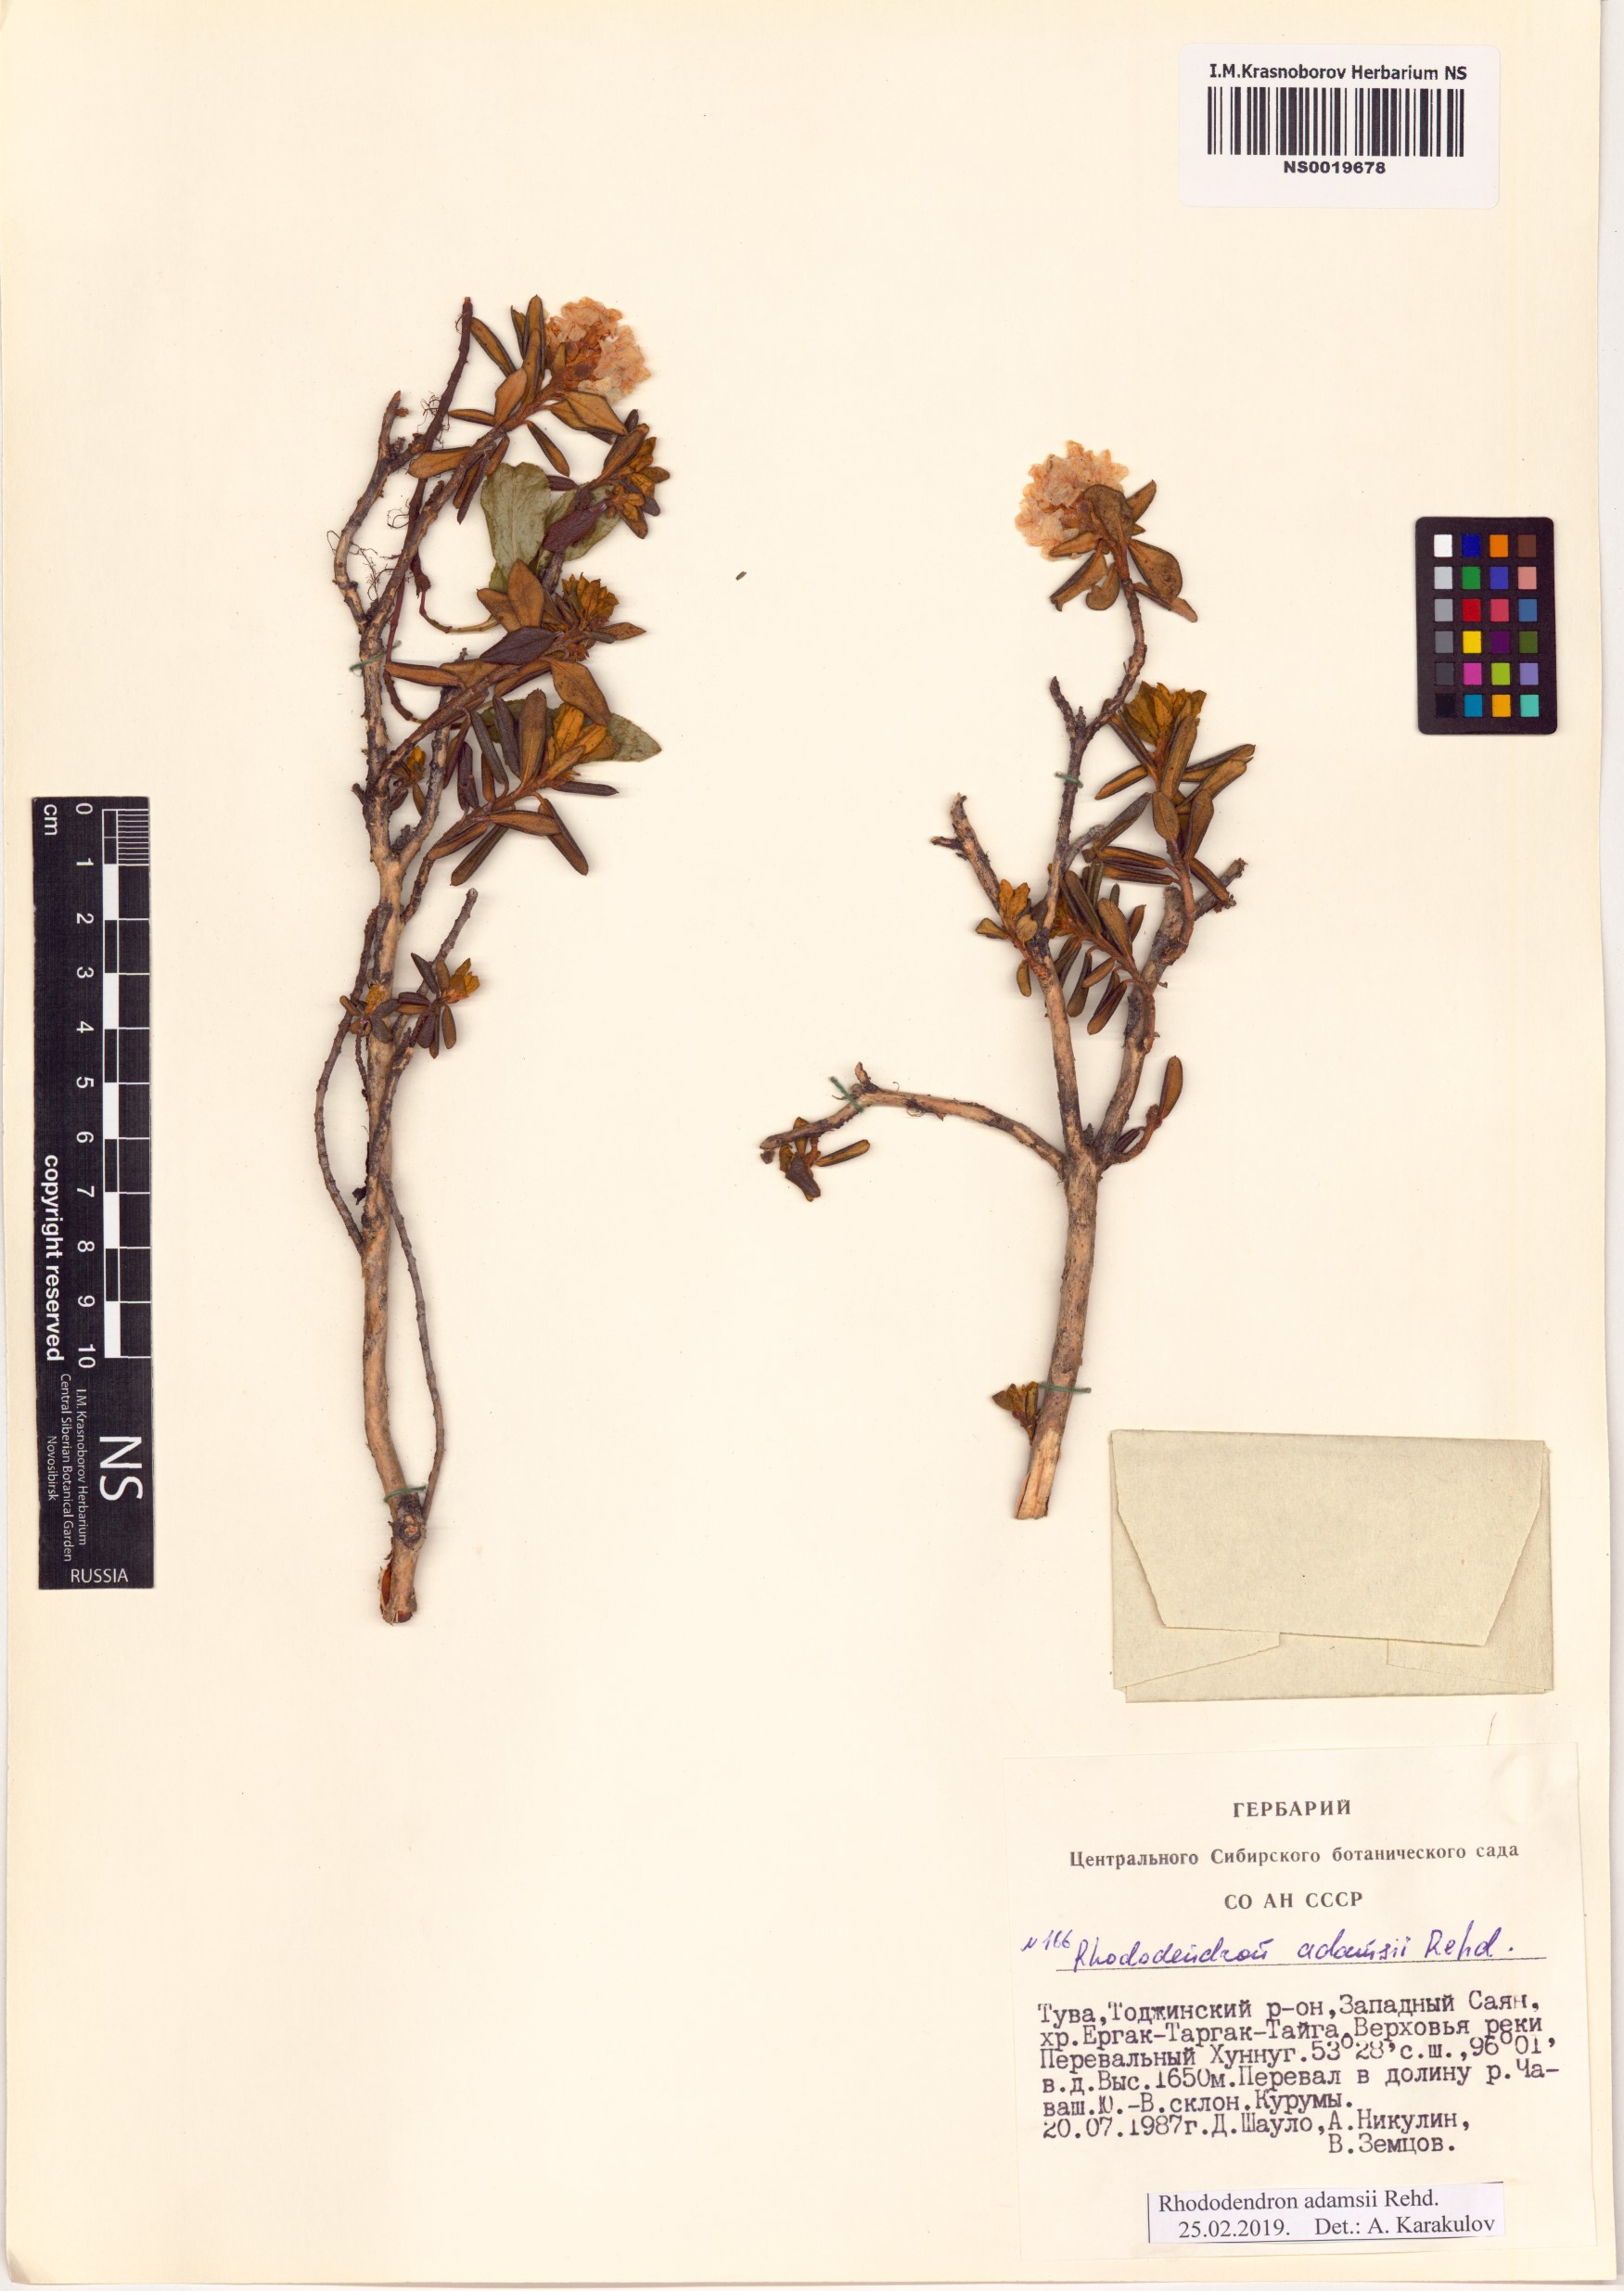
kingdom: Plantae
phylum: Tracheophyta
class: Magnoliopsida
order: Ericales
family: Ericaceae
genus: Rhododendron
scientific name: Rhododendron adamsii
